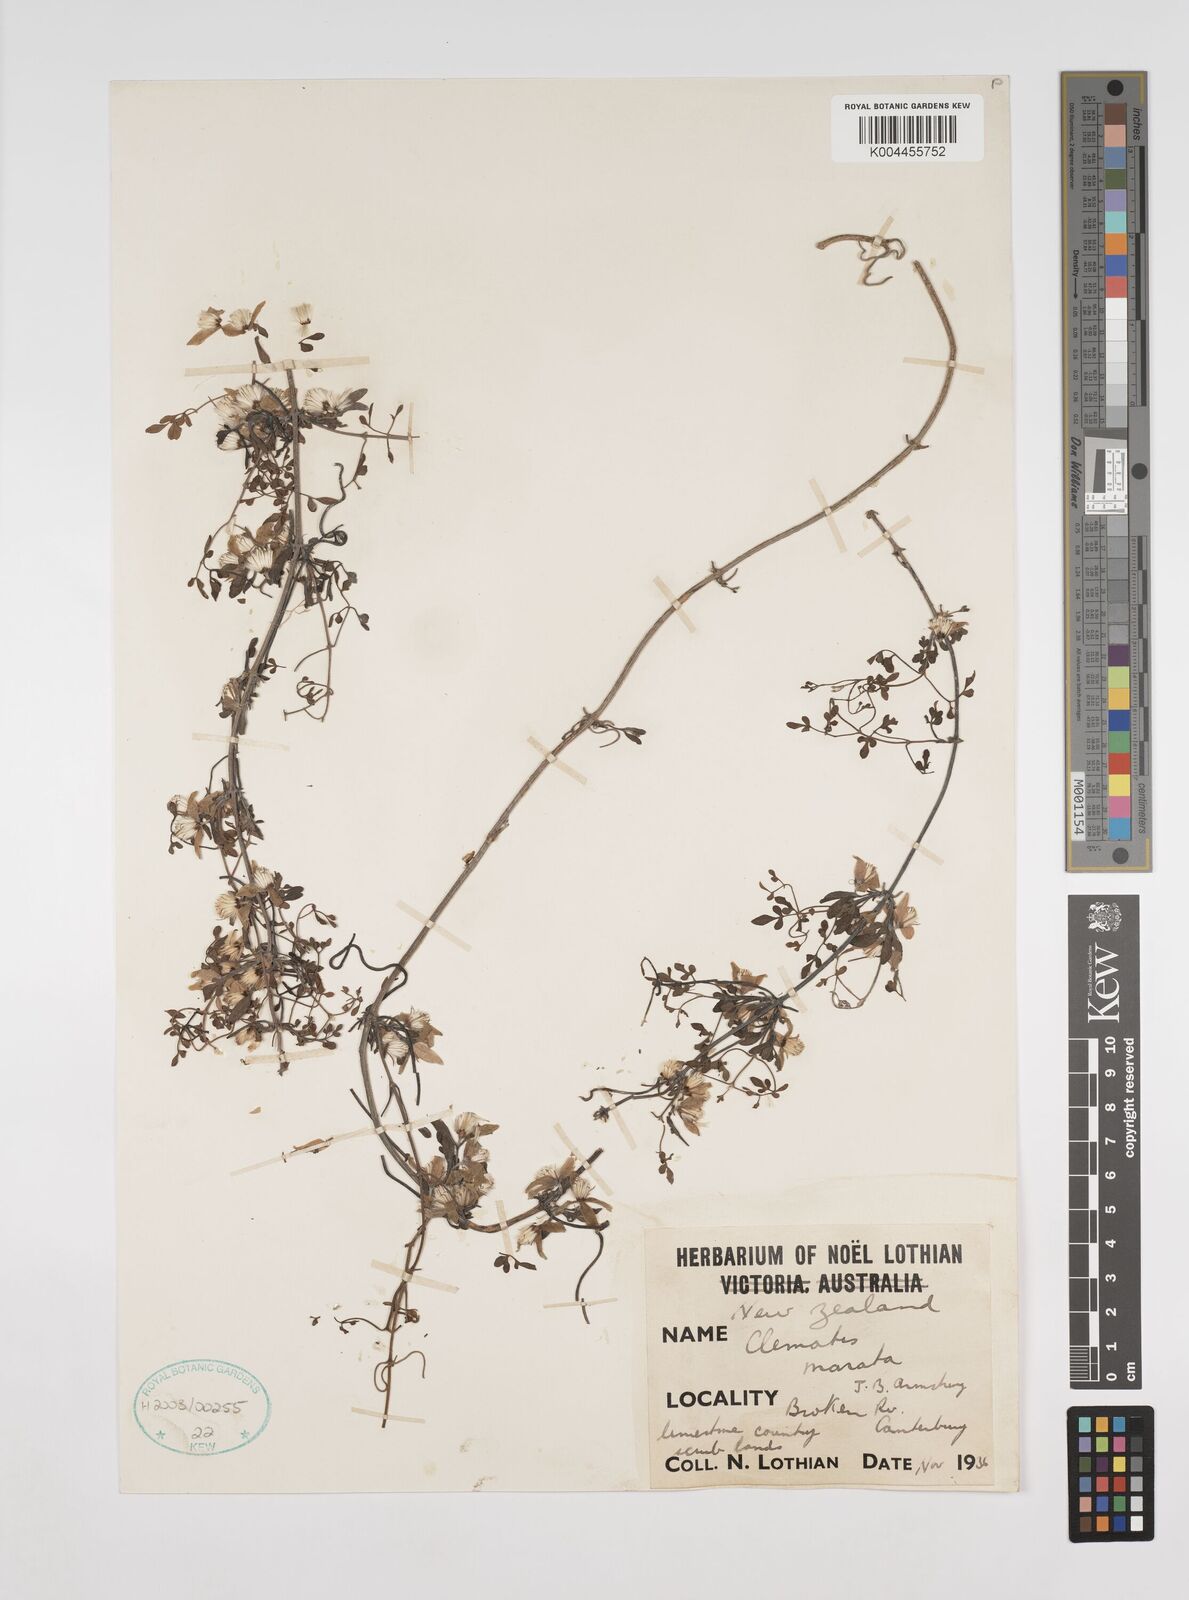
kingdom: Plantae
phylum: Tracheophyta
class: Magnoliopsida
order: Ranunculales
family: Ranunculaceae
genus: Clematis
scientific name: Clematis marata
